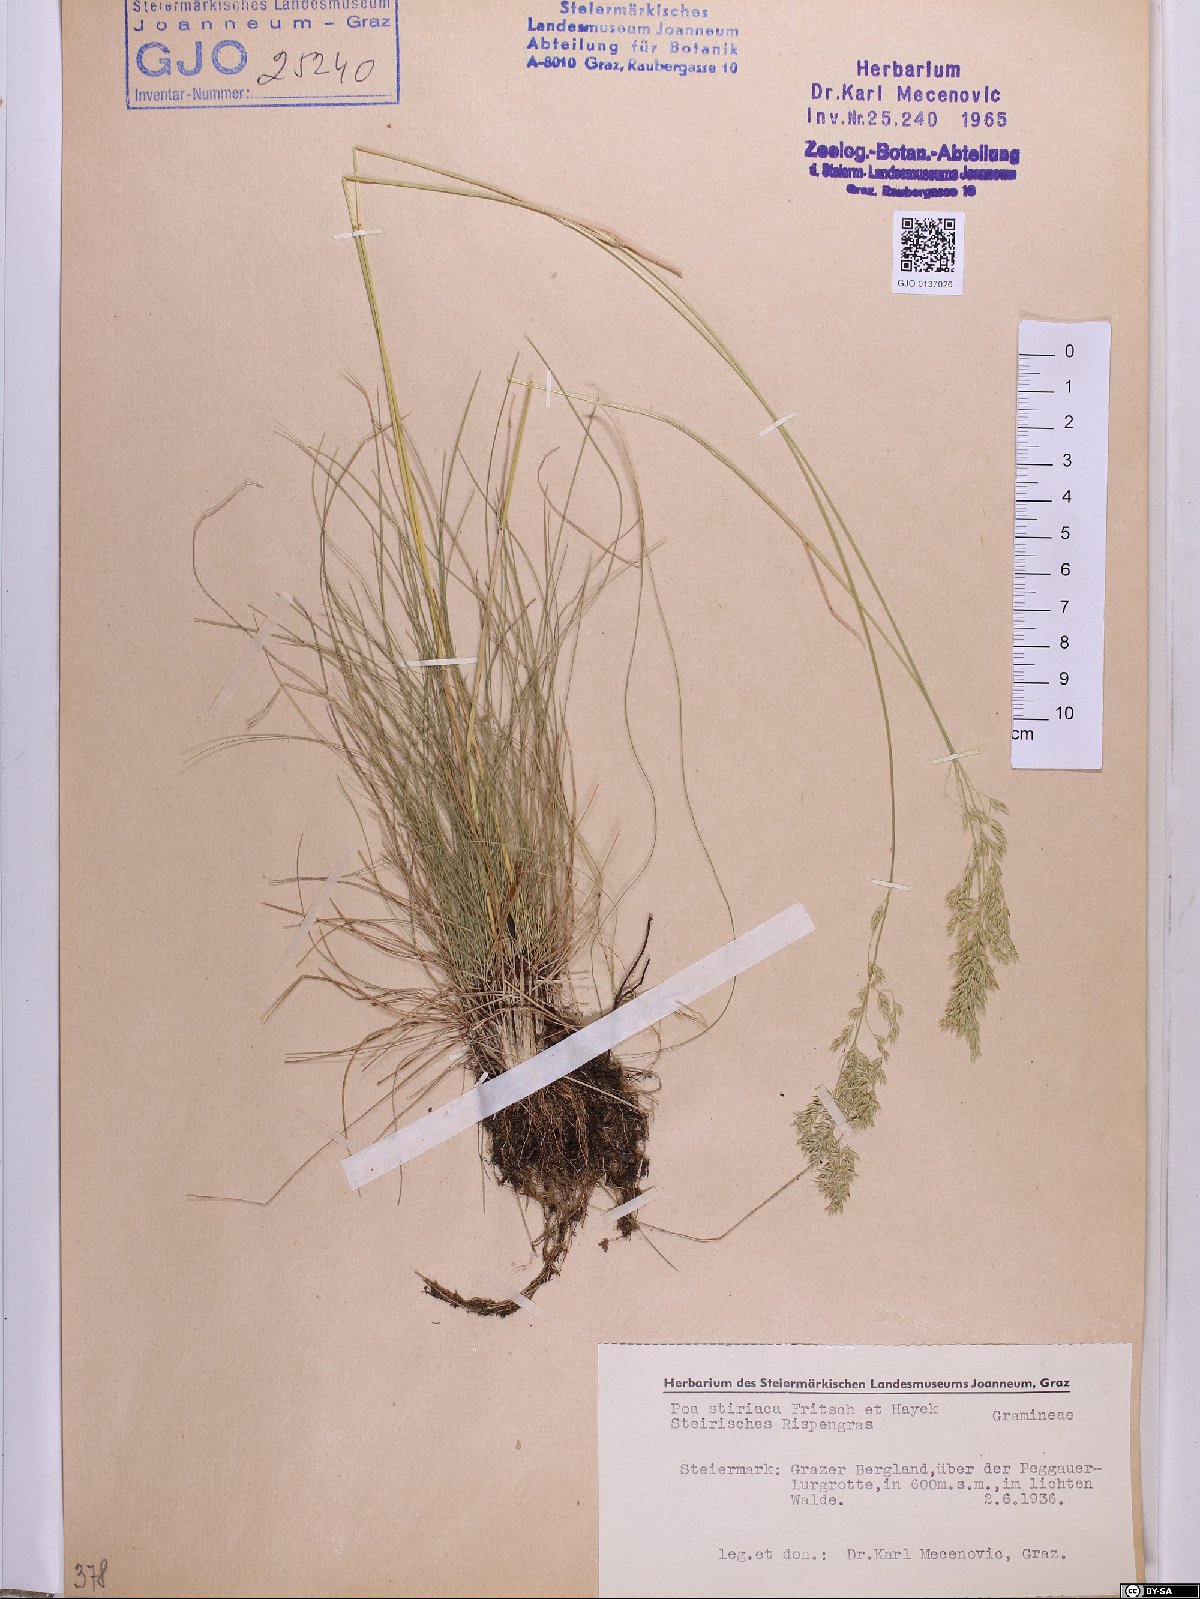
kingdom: Plantae
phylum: Tracheophyta
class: Liliopsida
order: Poales
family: Poaceae
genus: Poa
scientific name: Poa stiriaca
